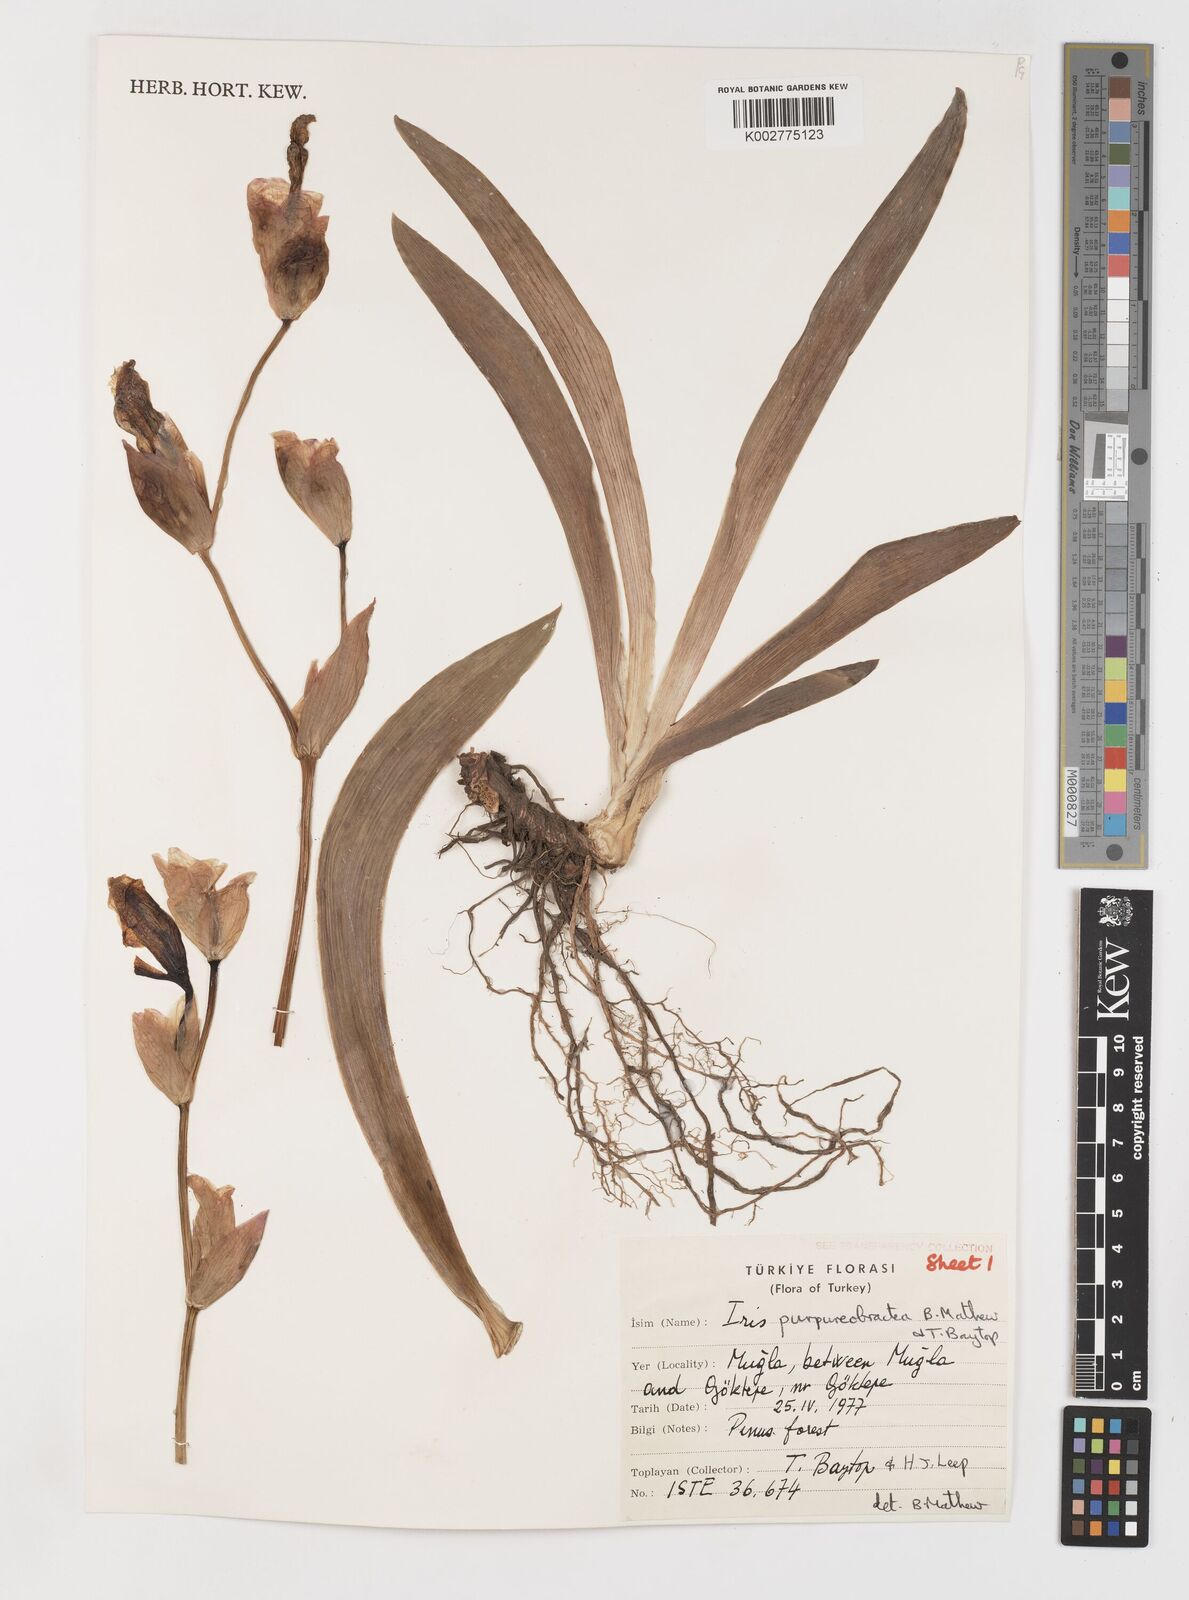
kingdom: Plantae
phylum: Tracheophyta
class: Liliopsida
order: Asparagales
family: Iridaceae
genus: Iris
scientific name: Iris purpureobractea
